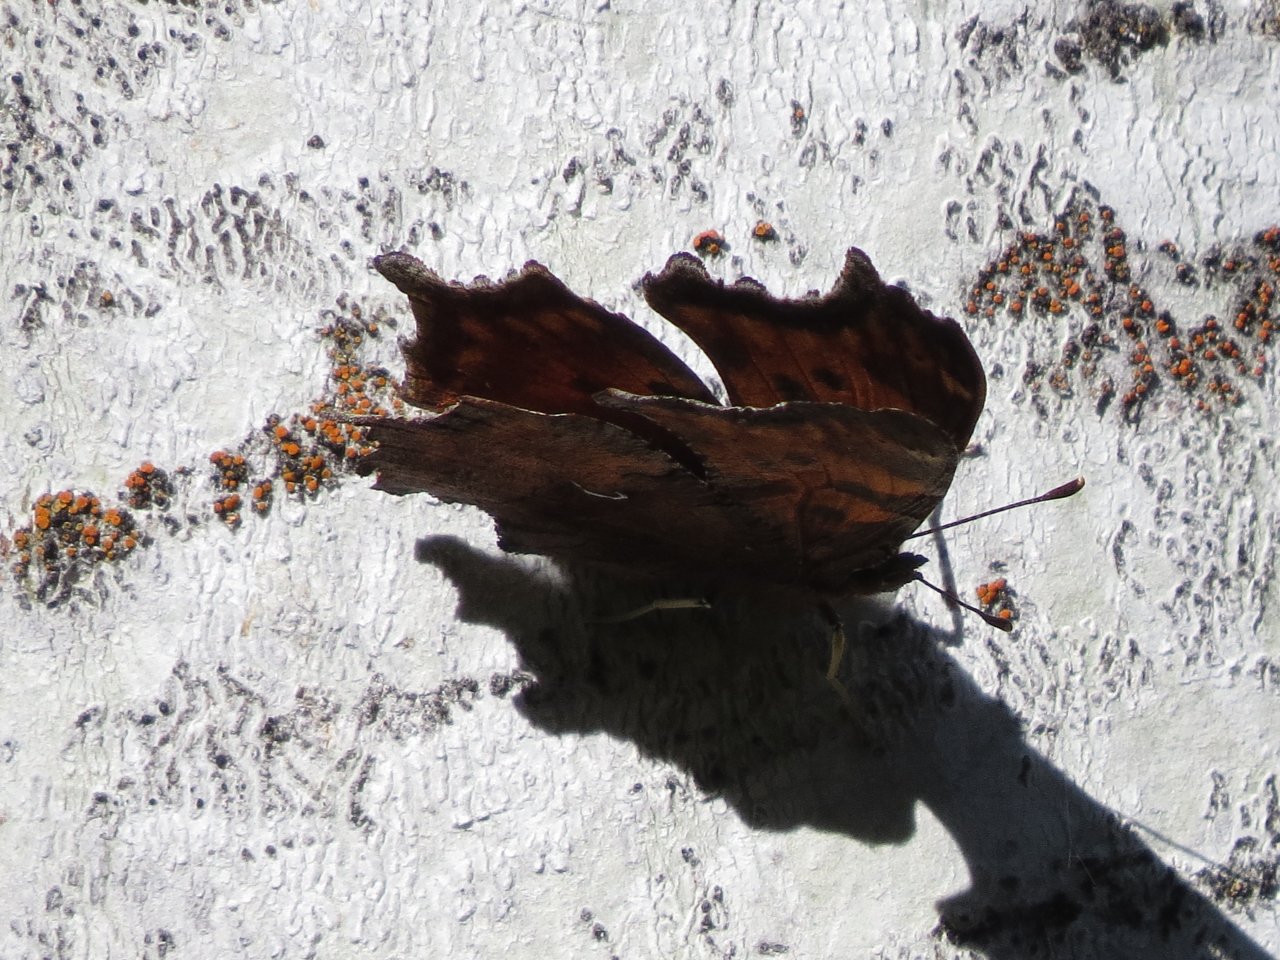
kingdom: Animalia
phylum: Arthropoda
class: Insecta
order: Lepidoptera
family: Nymphalidae
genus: Polygonia
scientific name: Polygonia progne
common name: Gray Comma
